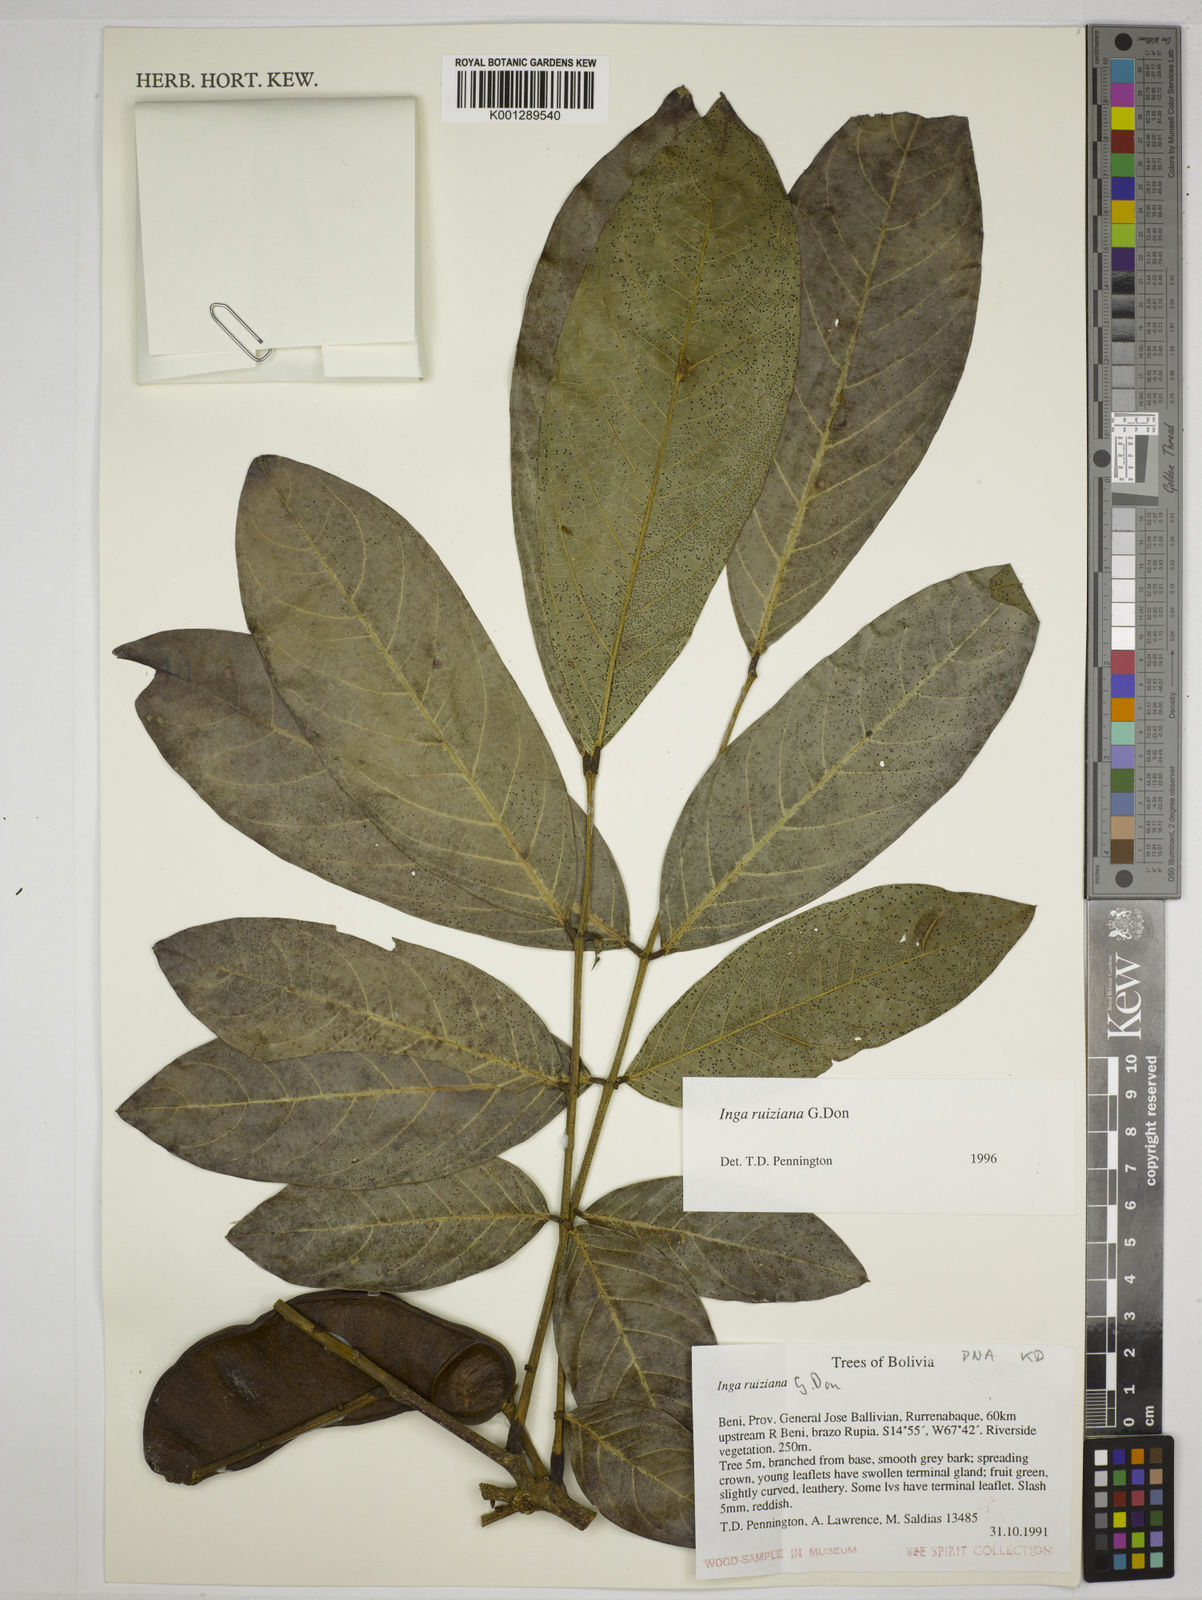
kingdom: Plantae
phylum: Tracheophyta
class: Magnoliopsida
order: Fabales
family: Fabaceae
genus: Inga
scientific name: Inga ruiziana
